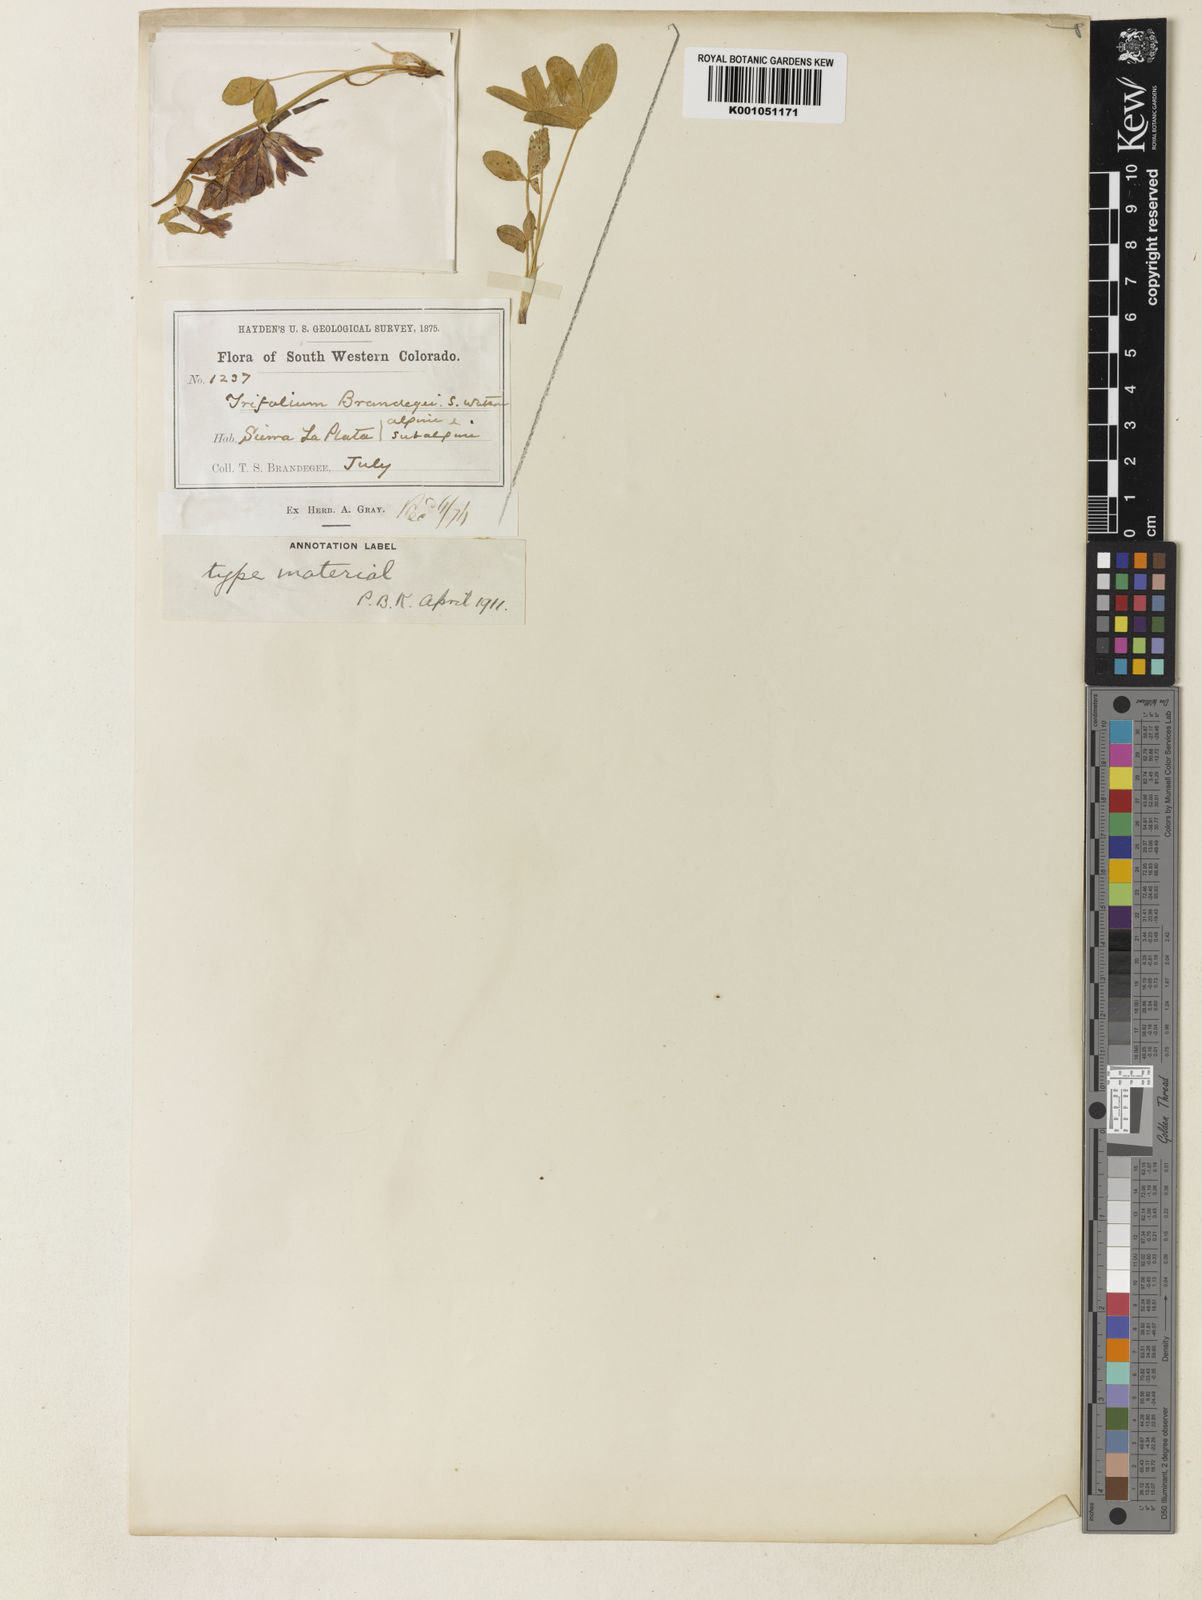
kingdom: Plantae
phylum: Tracheophyta
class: Magnoliopsida
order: Fabales
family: Fabaceae
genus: Trifolium
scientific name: Trifolium kingii
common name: Shasta clover
